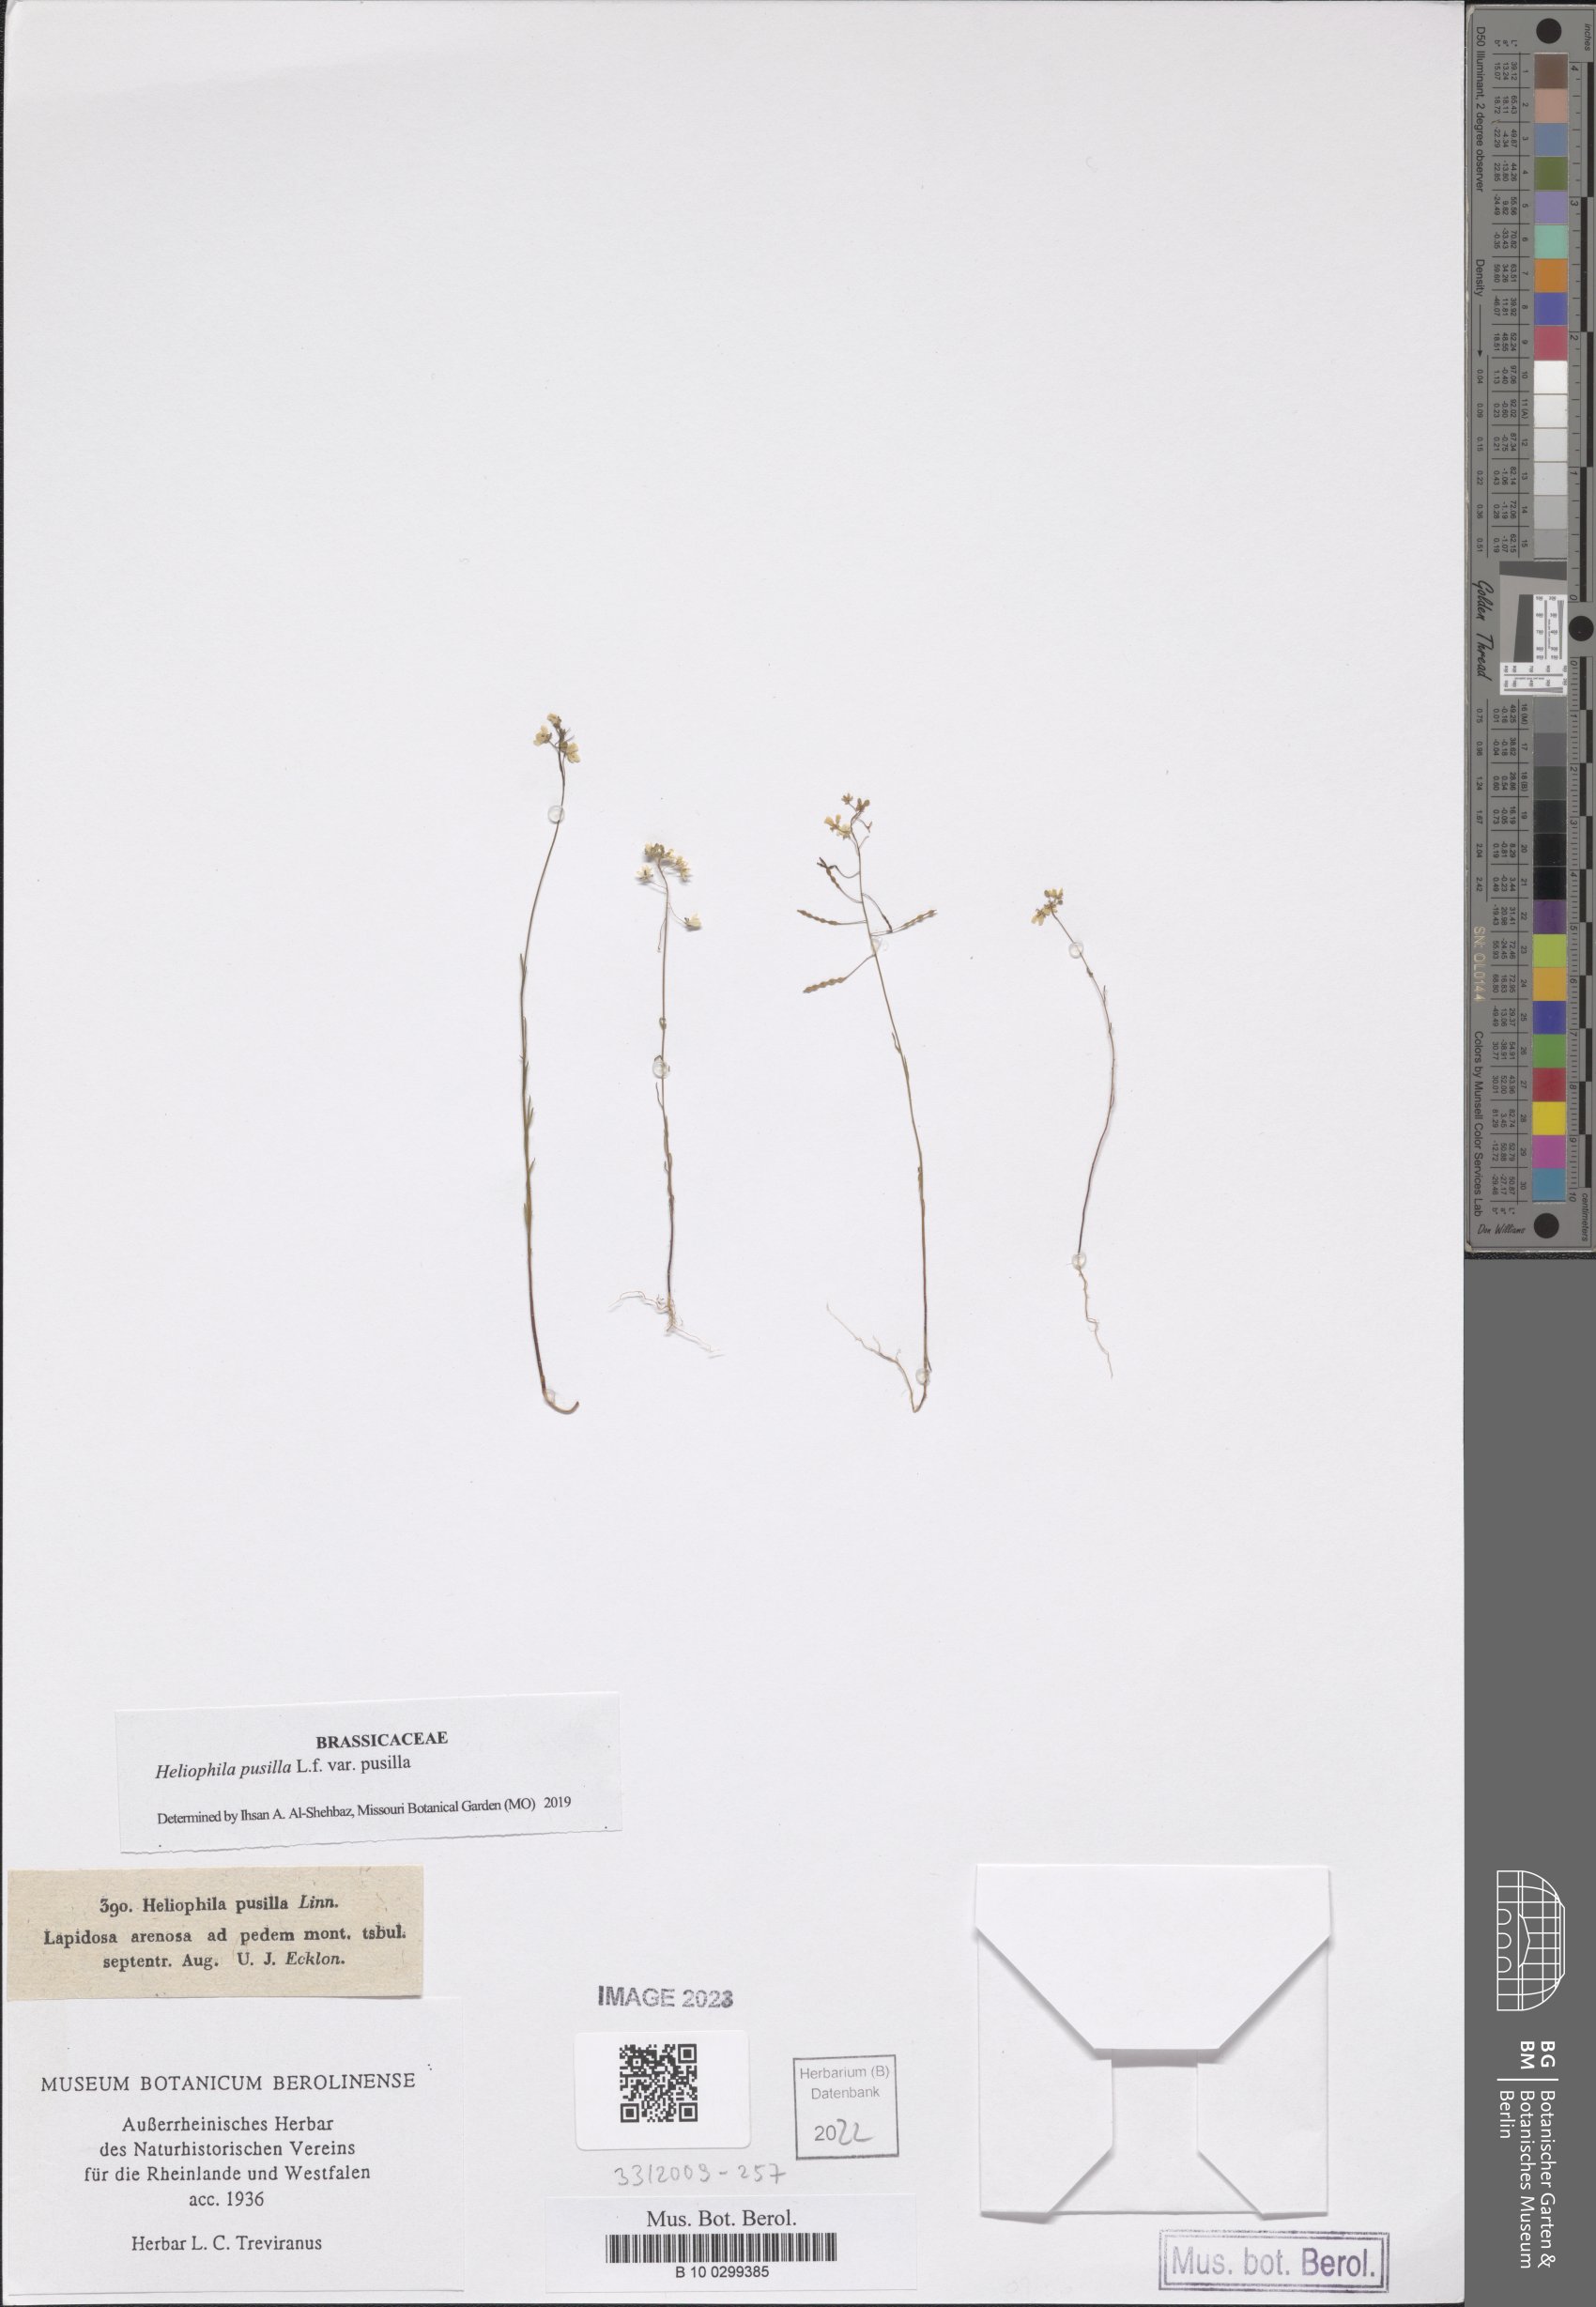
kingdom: Plantae
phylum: Tracheophyta
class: Magnoliopsida
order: Brassicales
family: Brassicaceae
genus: Heliophila
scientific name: Heliophila pusilla
